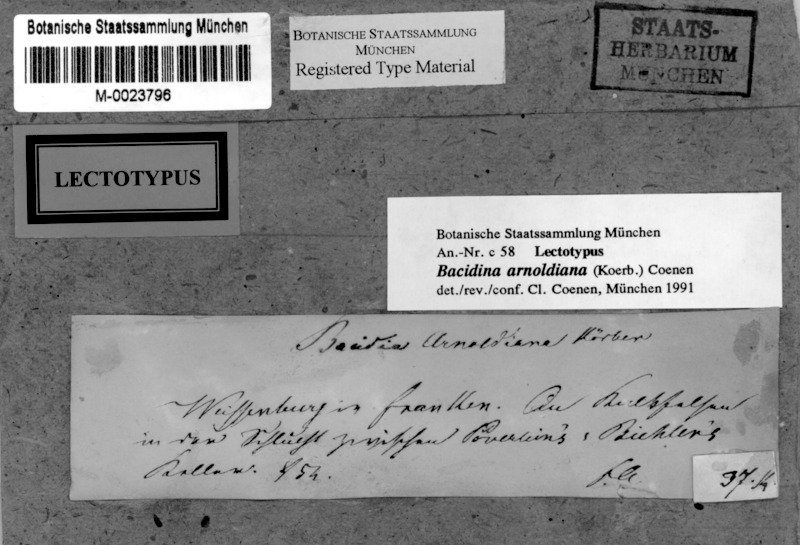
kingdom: Fungi
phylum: Ascomycota
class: Lecanoromycetes
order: Lecanorales
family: Ramalinaceae
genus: Bacidina
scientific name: Bacidina arnoldiana
